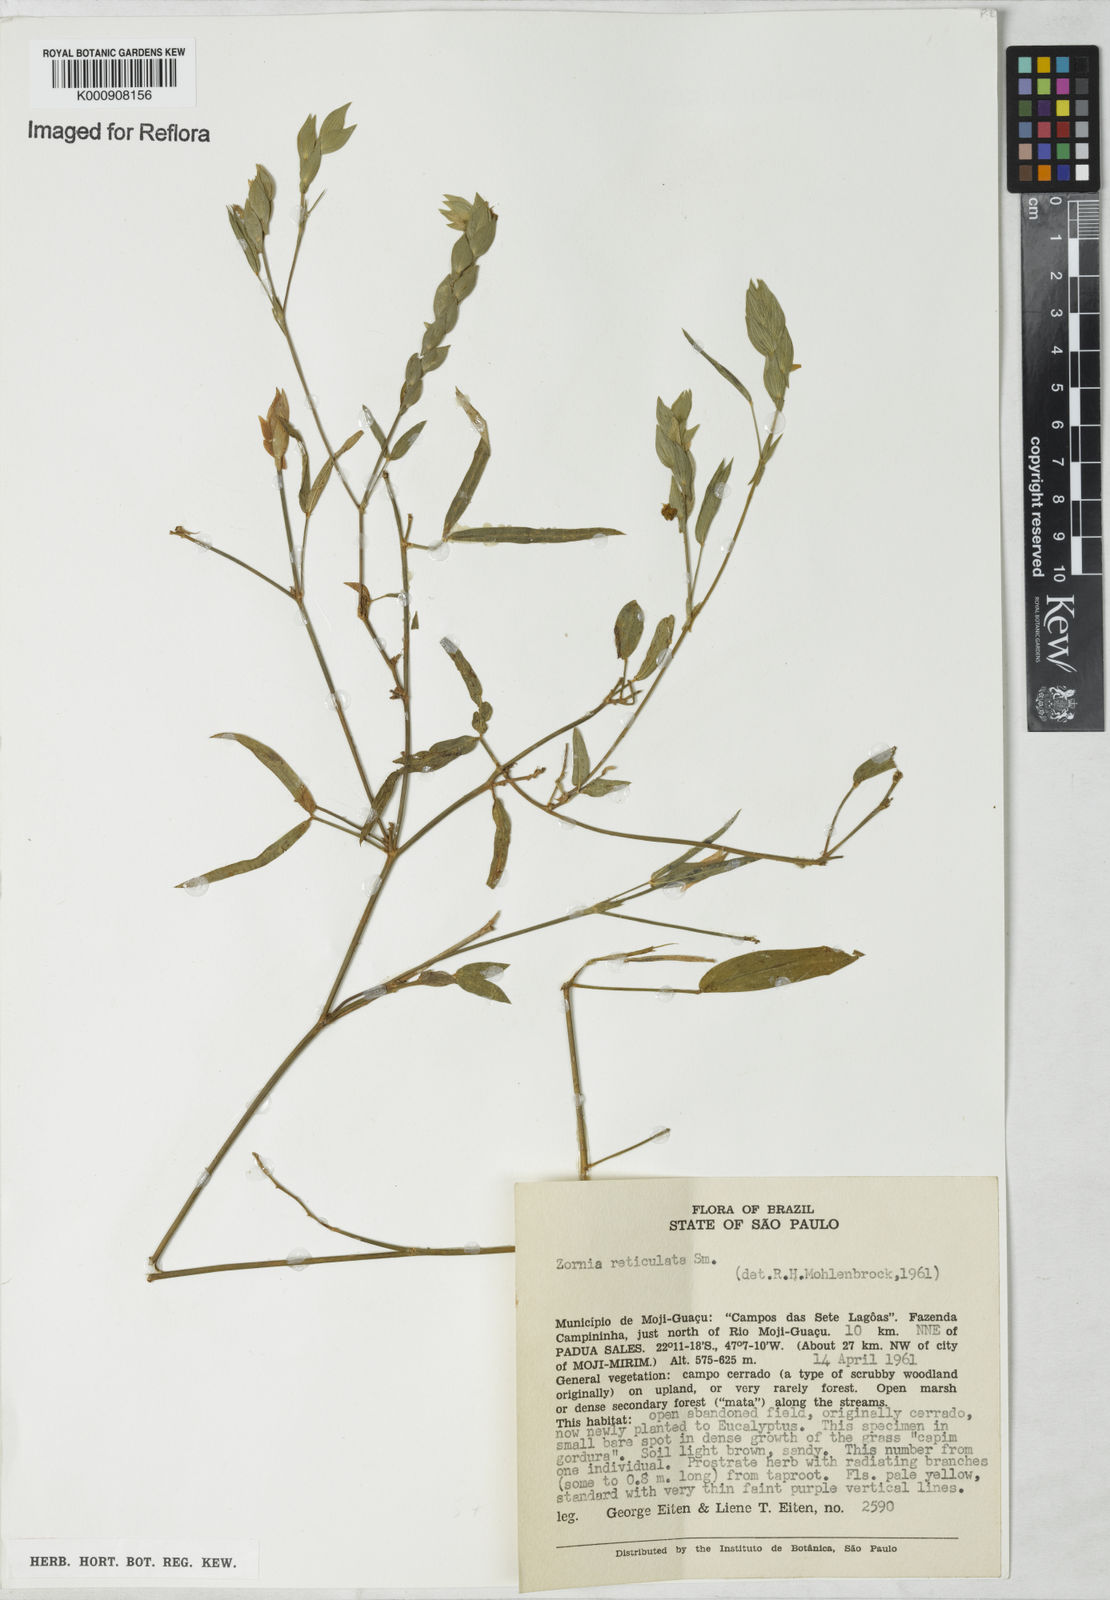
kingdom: Plantae
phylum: Tracheophyta
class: Magnoliopsida
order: Fabales
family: Fabaceae
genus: Zornia
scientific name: Zornia reticulata
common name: Reticulate viperina
